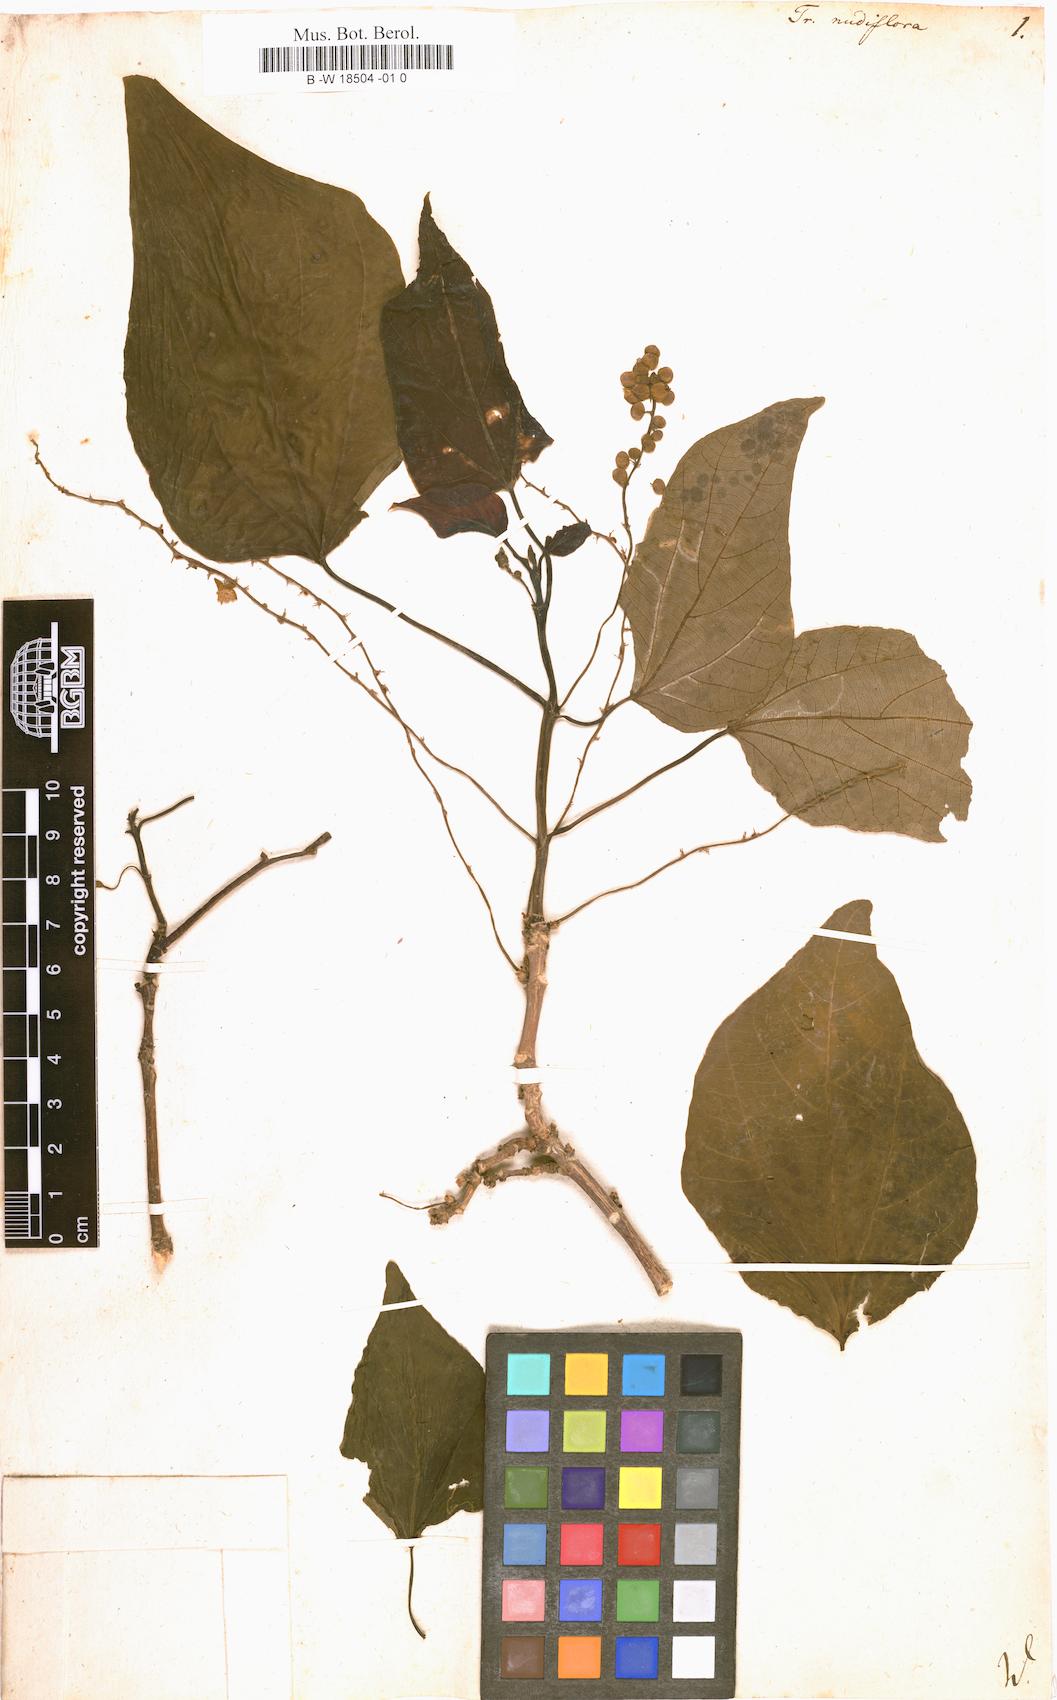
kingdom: Plantae
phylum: Tracheophyta
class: Magnoliopsida
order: Malpighiales
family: Euphorbiaceae
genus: Mallotus
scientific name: Mallotus nudiflorus
